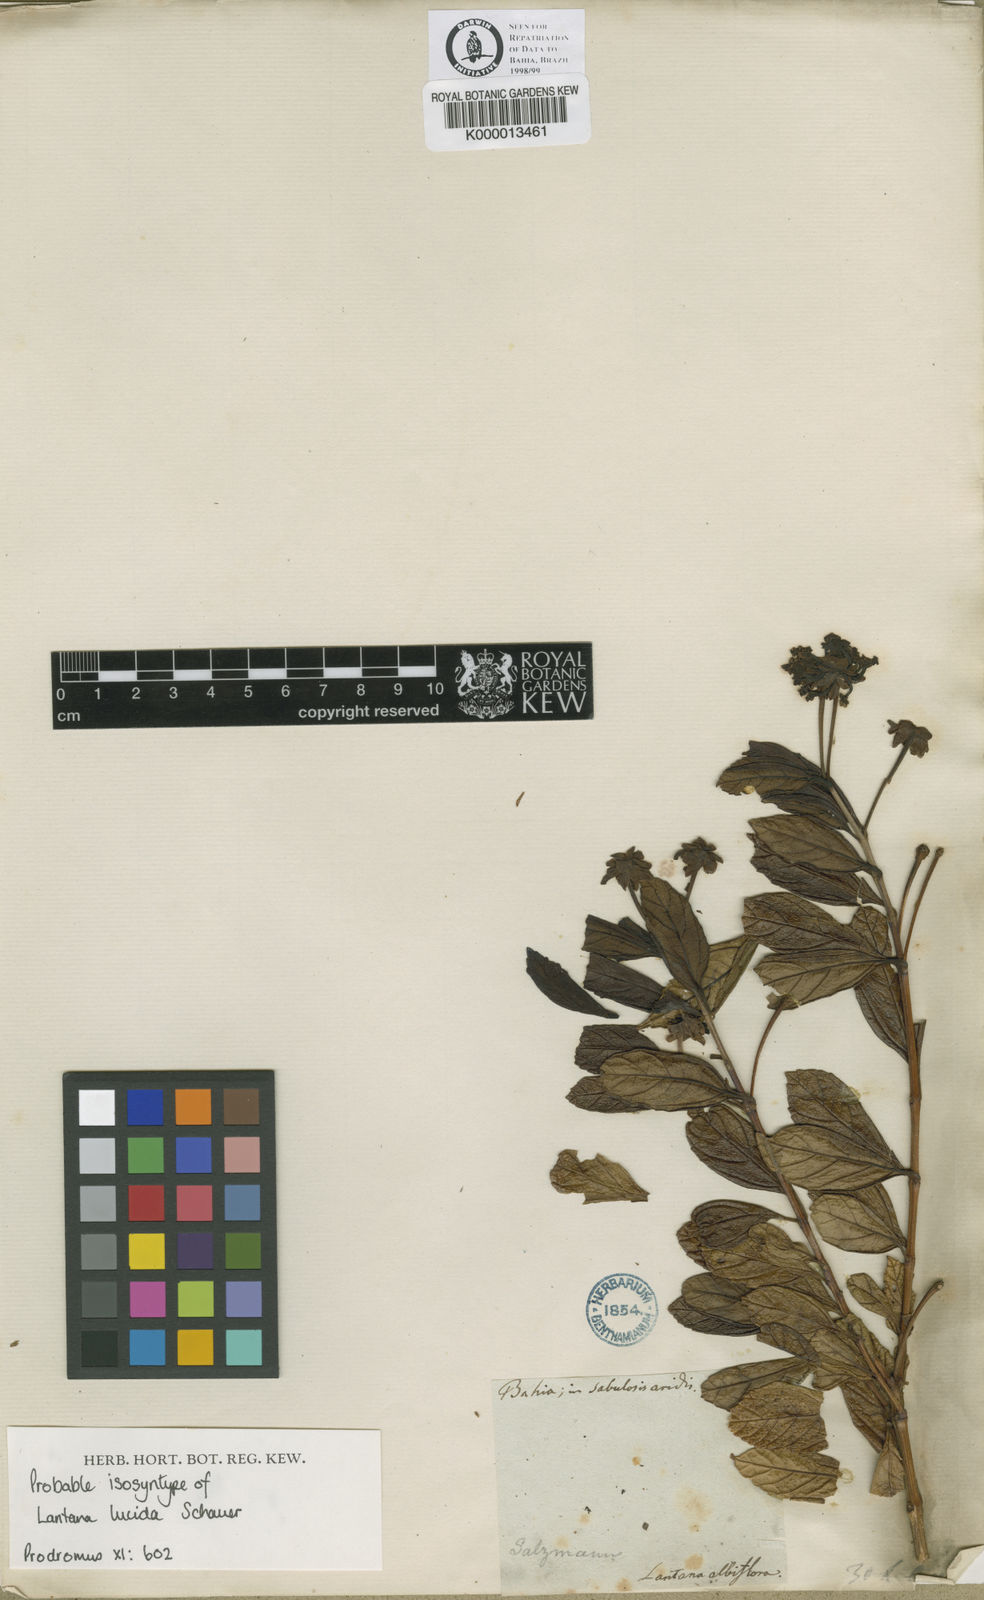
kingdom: Plantae
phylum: Tracheophyta
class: Magnoliopsida
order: Lamiales
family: Verbenaceae
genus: Lantana
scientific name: Lantana
